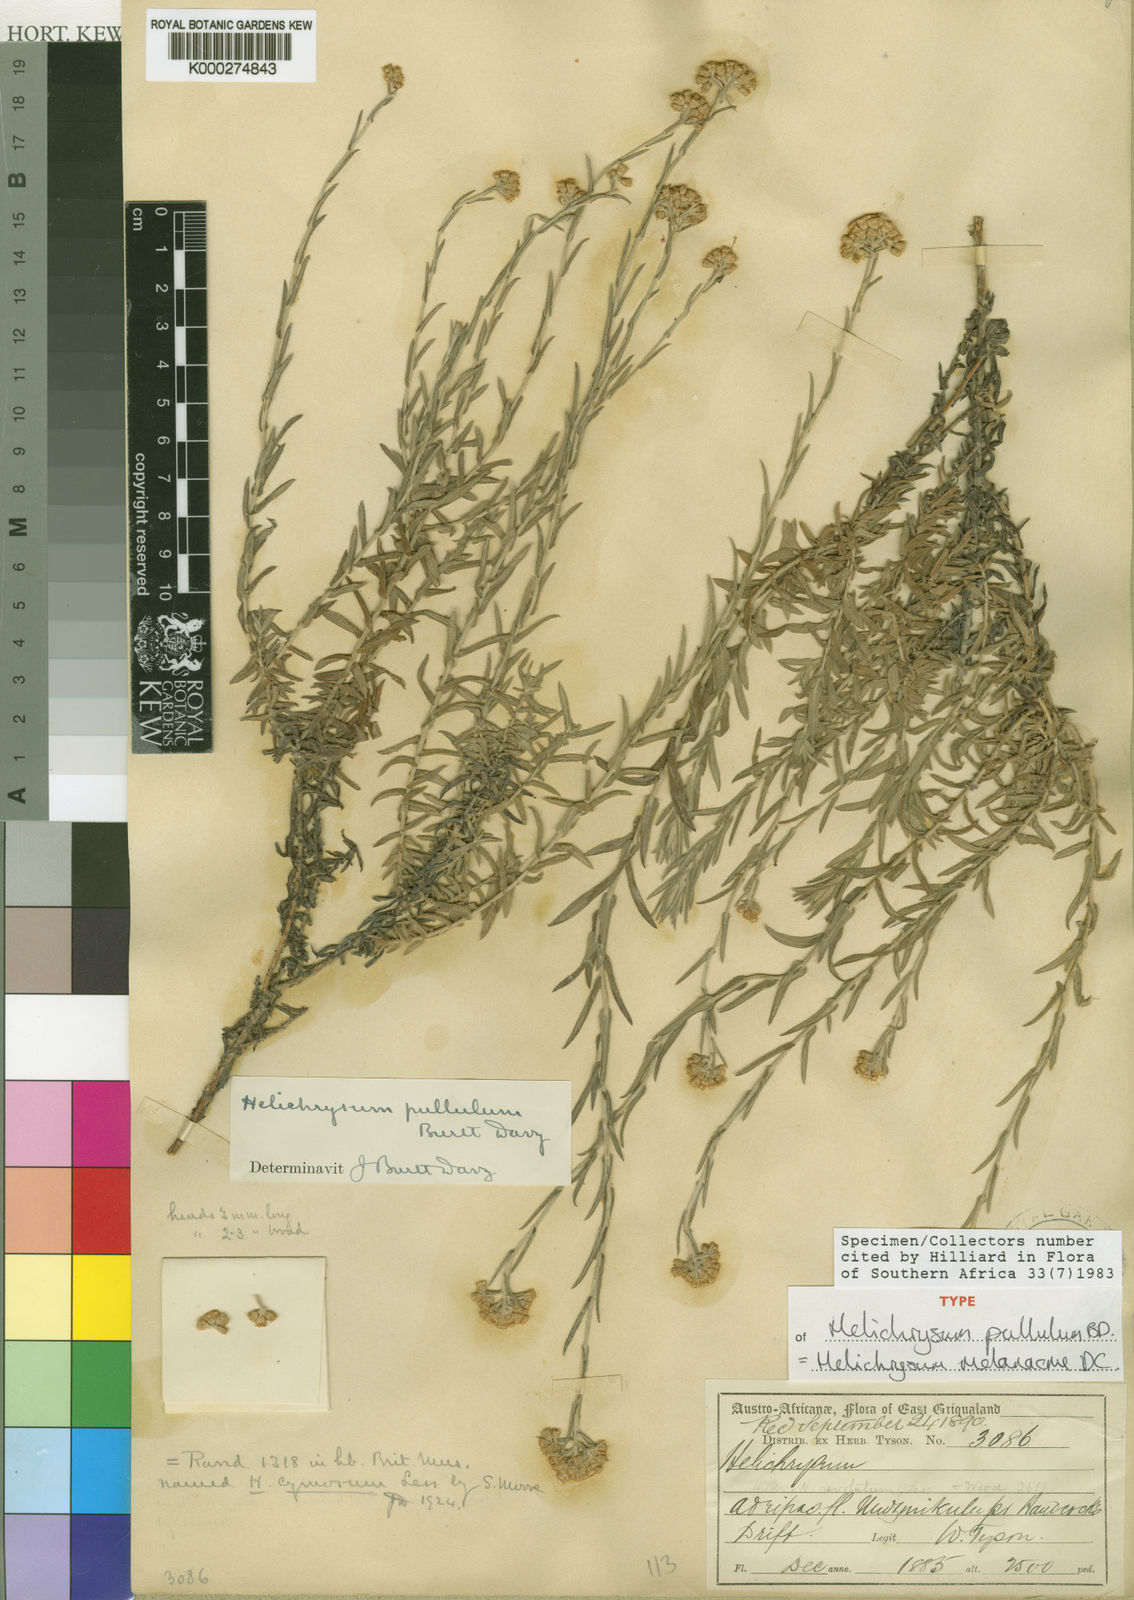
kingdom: Plantae
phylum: Tracheophyta
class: Magnoliopsida
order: Asterales
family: Asteraceae
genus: Helichrysum
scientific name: Helichrysum melanacme
